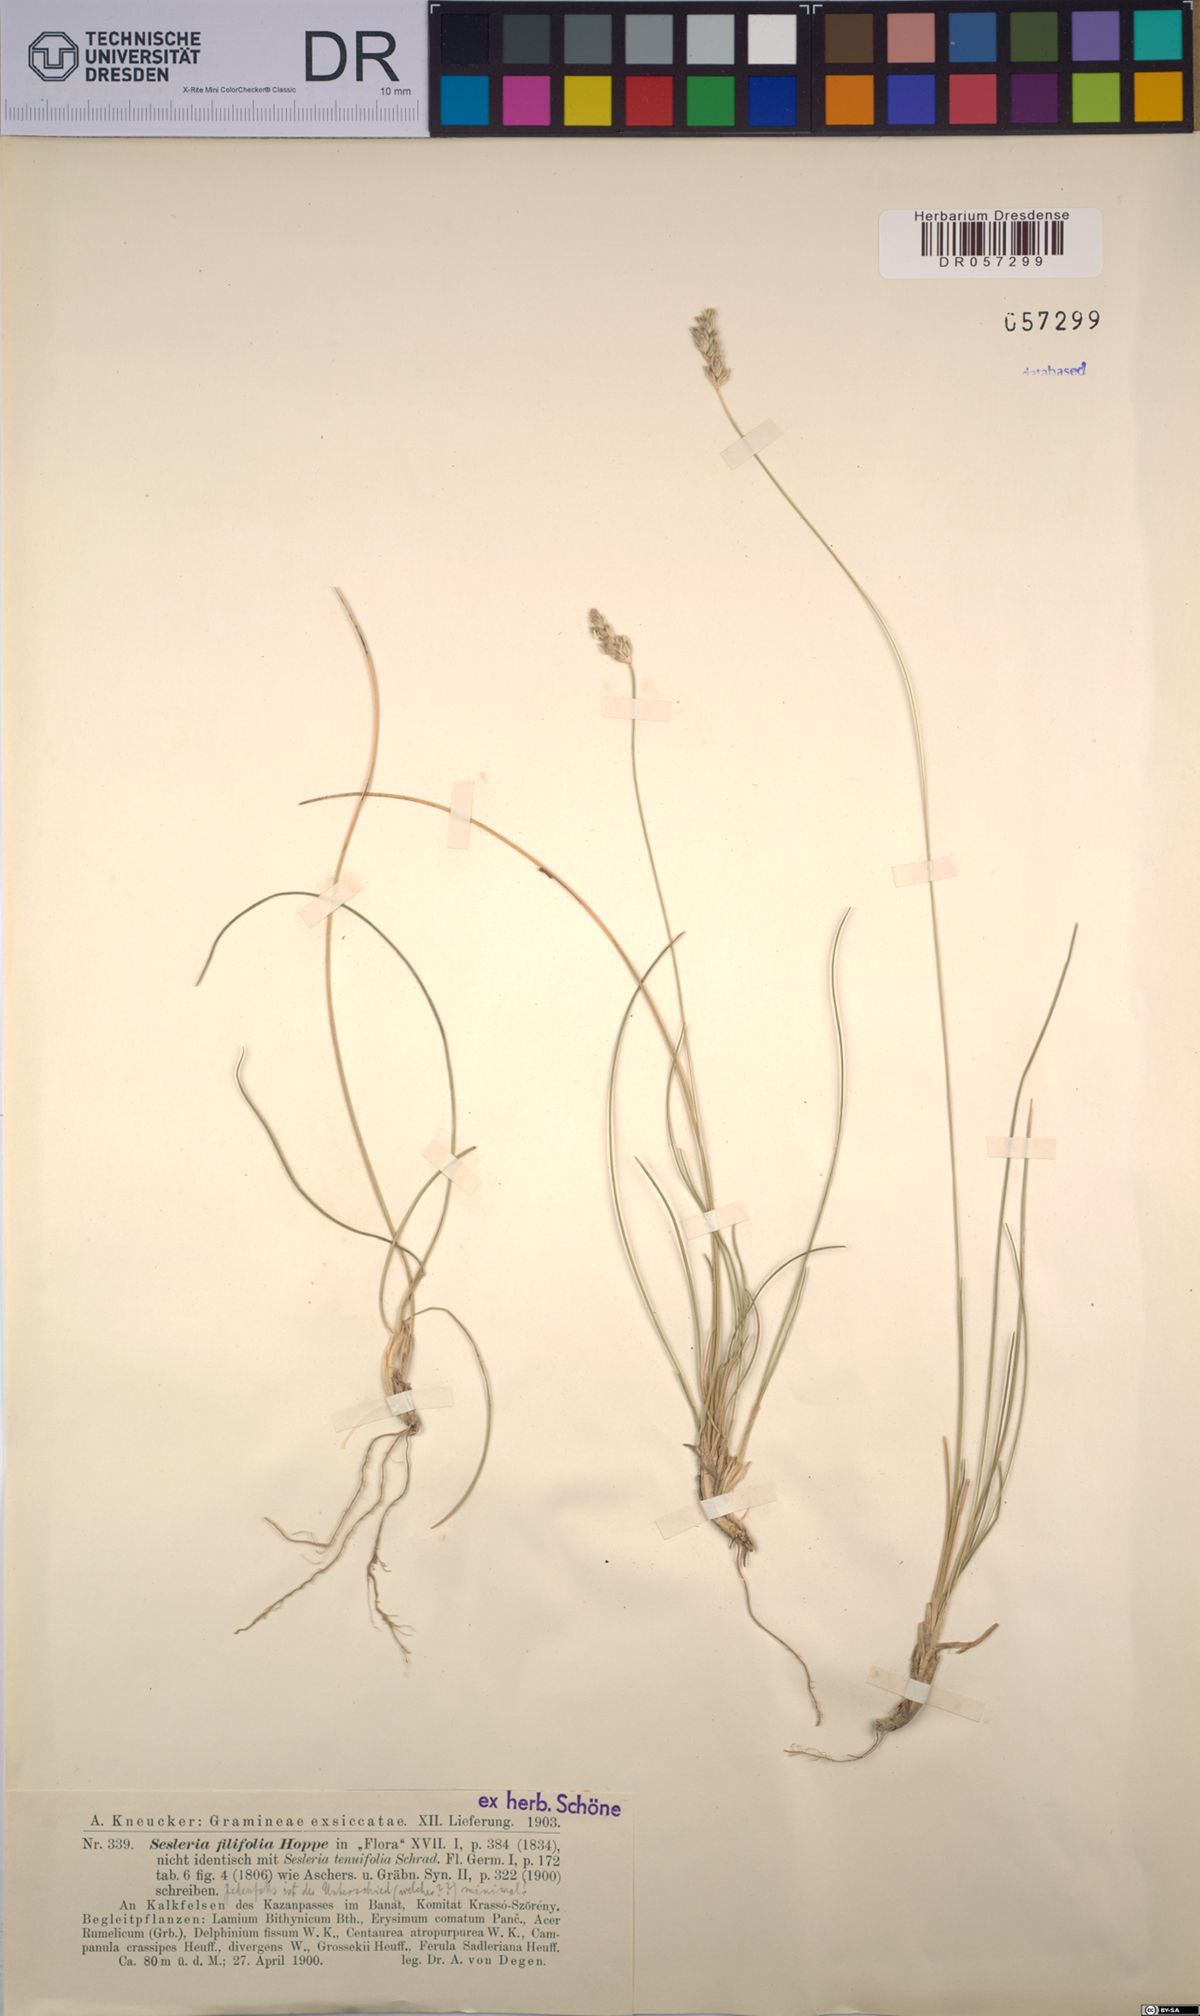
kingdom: Plantae
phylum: Tracheophyta
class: Liliopsida
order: Poales
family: Poaceae
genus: Sesleria
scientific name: Sesleria filifolia
